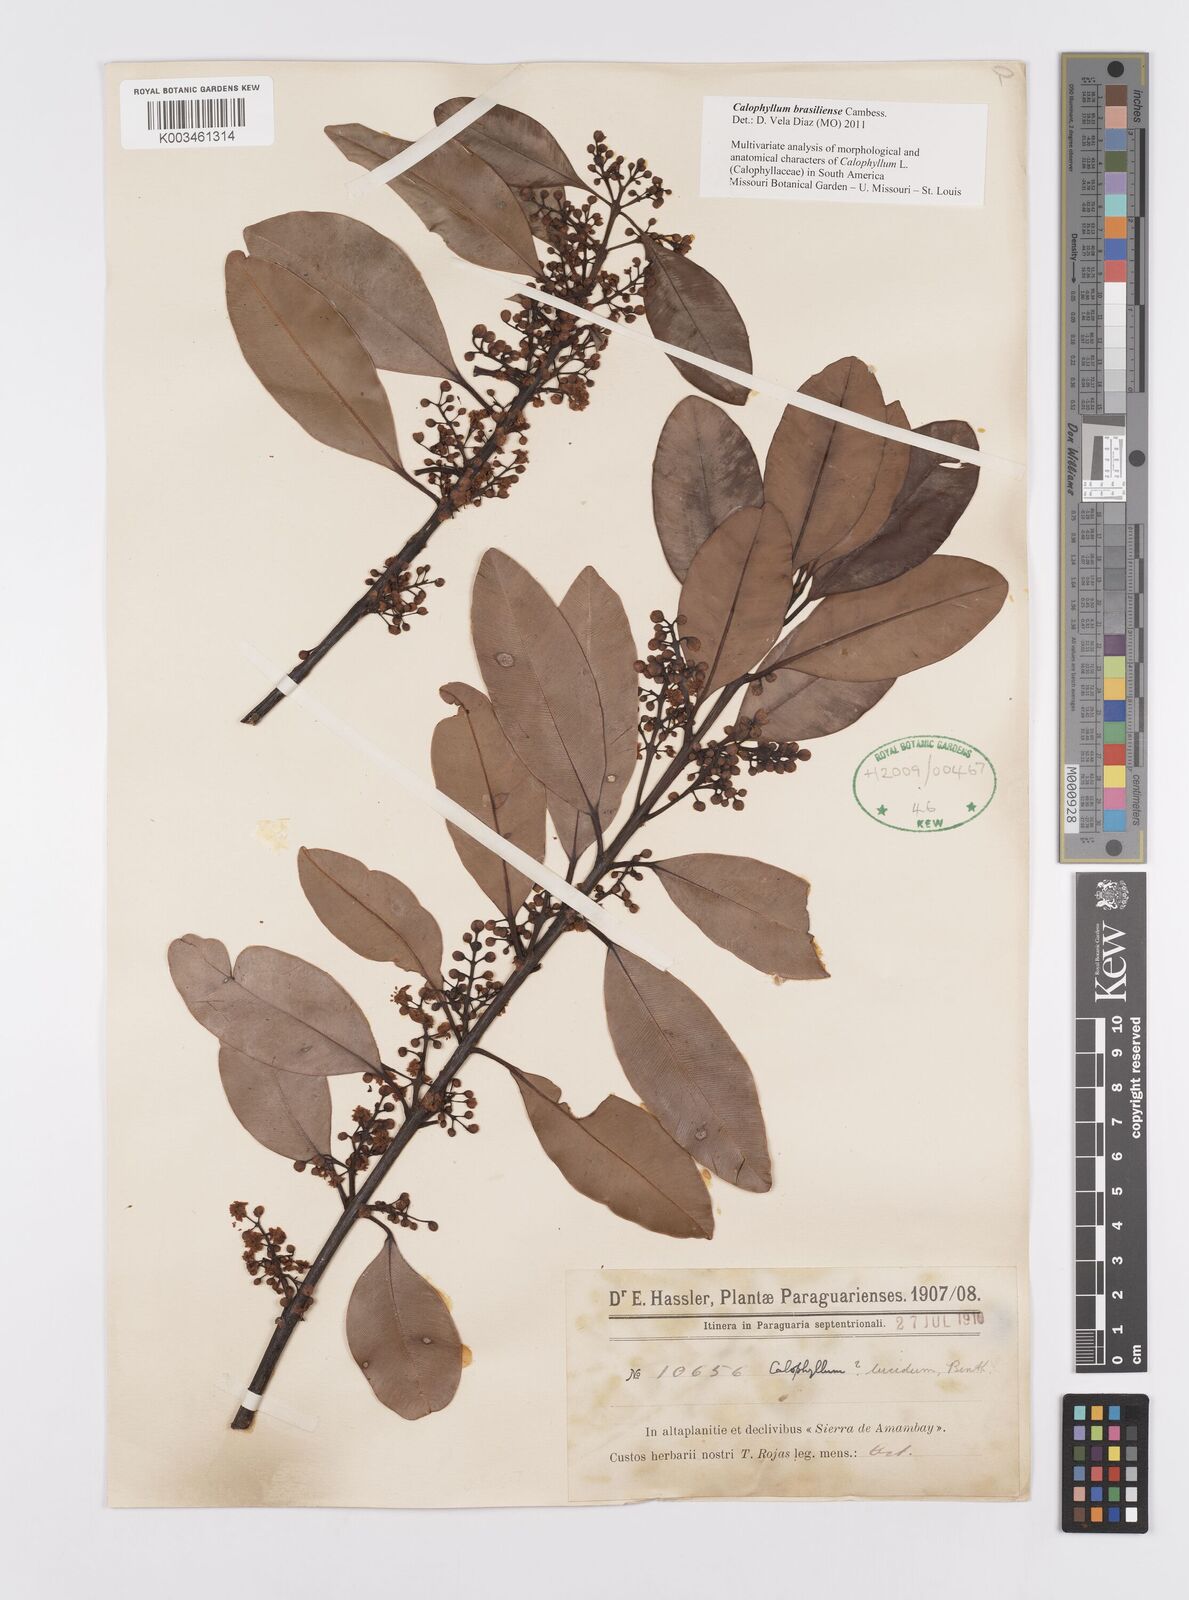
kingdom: Plantae
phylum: Tracheophyta
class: Magnoliopsida
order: Malpighiales
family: Calophyllaceae
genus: Calophyllum
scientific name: Calophyllum brasiliense
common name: Santa maria
